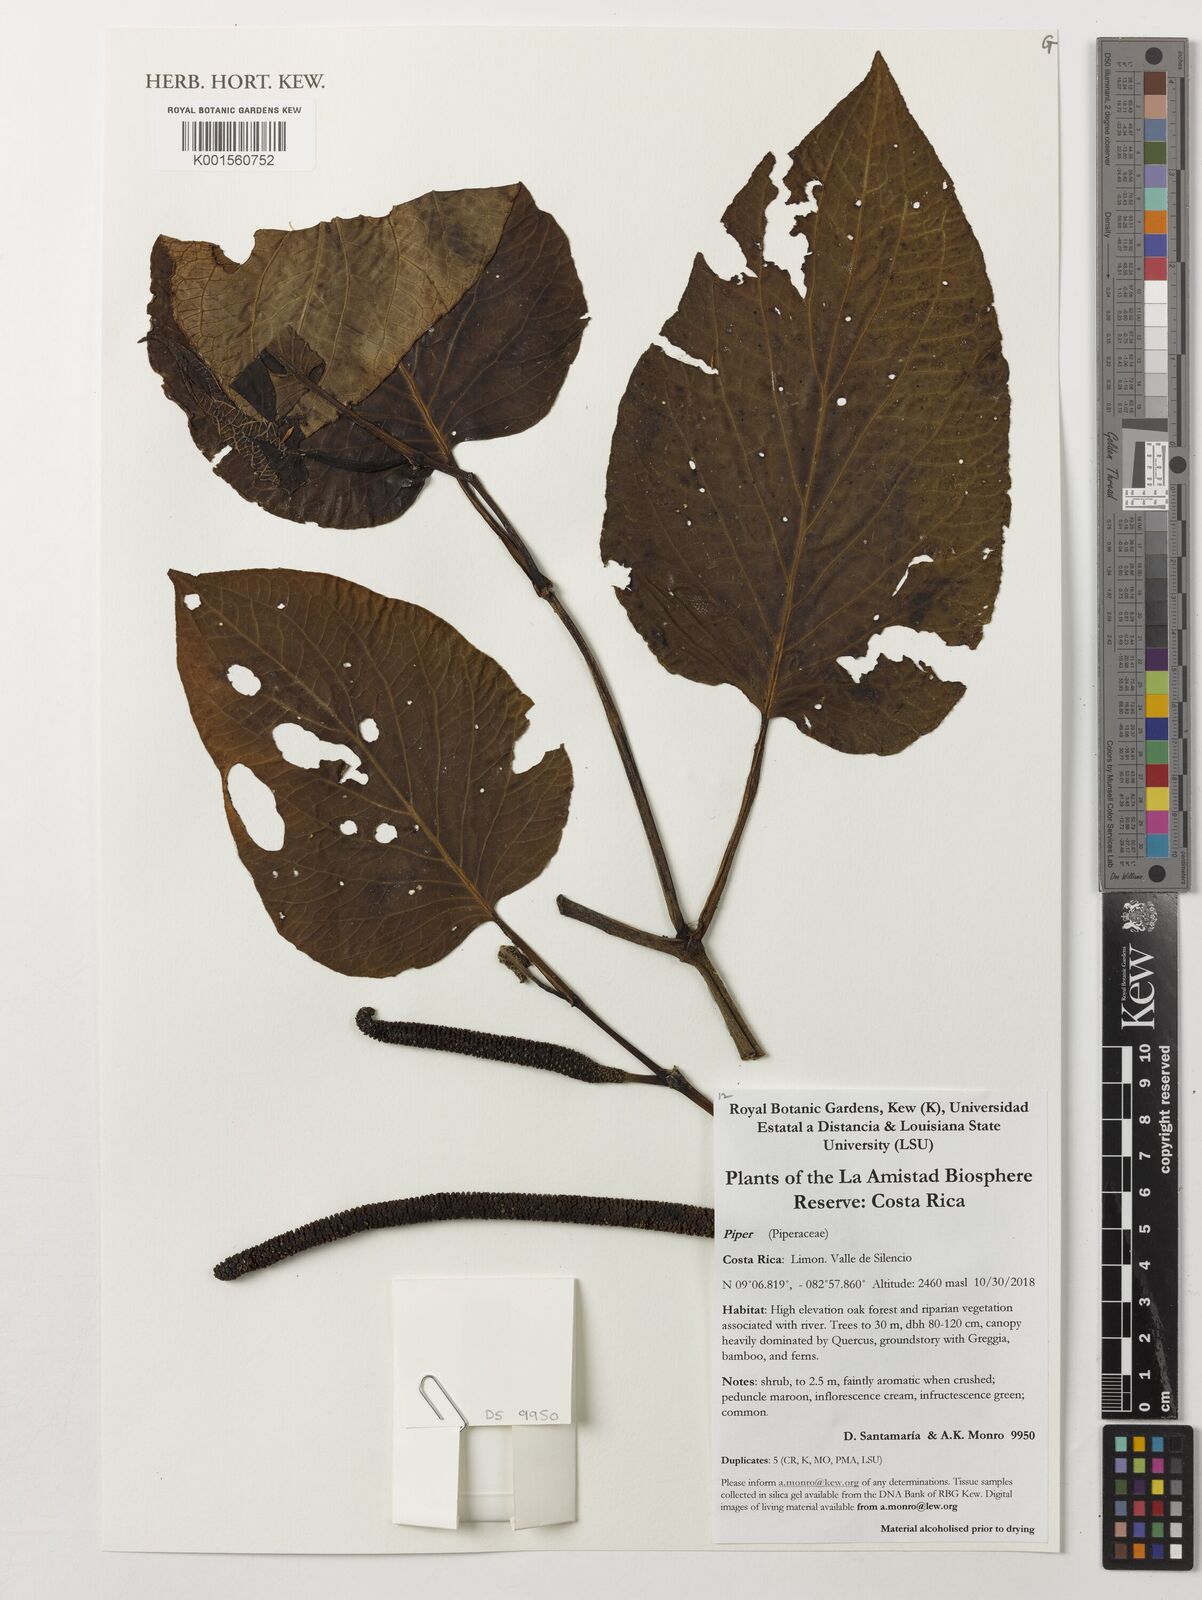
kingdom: Plantae
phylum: Tracheophyta
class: Magnoliopsida
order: Piperales
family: Piperaceae
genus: Piper
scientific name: Piper
